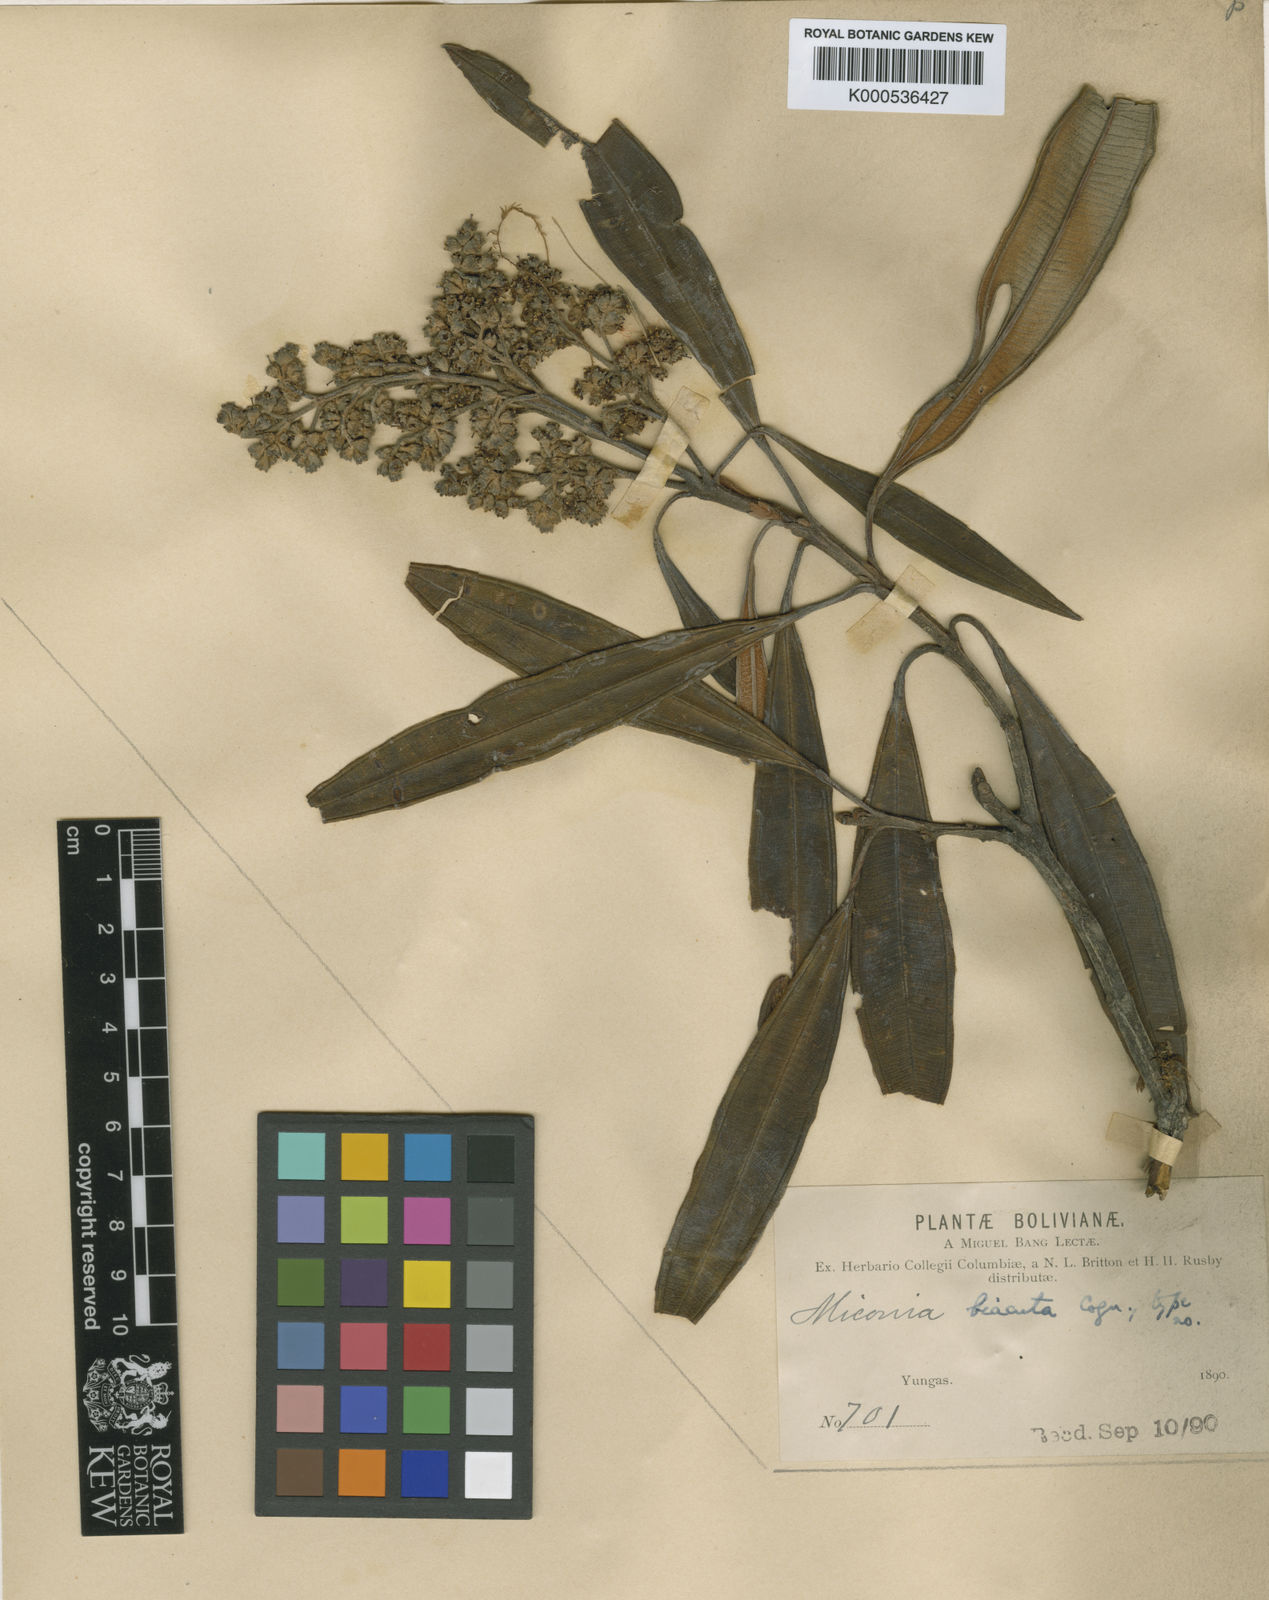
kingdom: Plantae
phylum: Tracheophyta
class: Magnoliopsida
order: Myrtales
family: Melastomataceae
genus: Miconia
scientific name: Miconia biacuta
